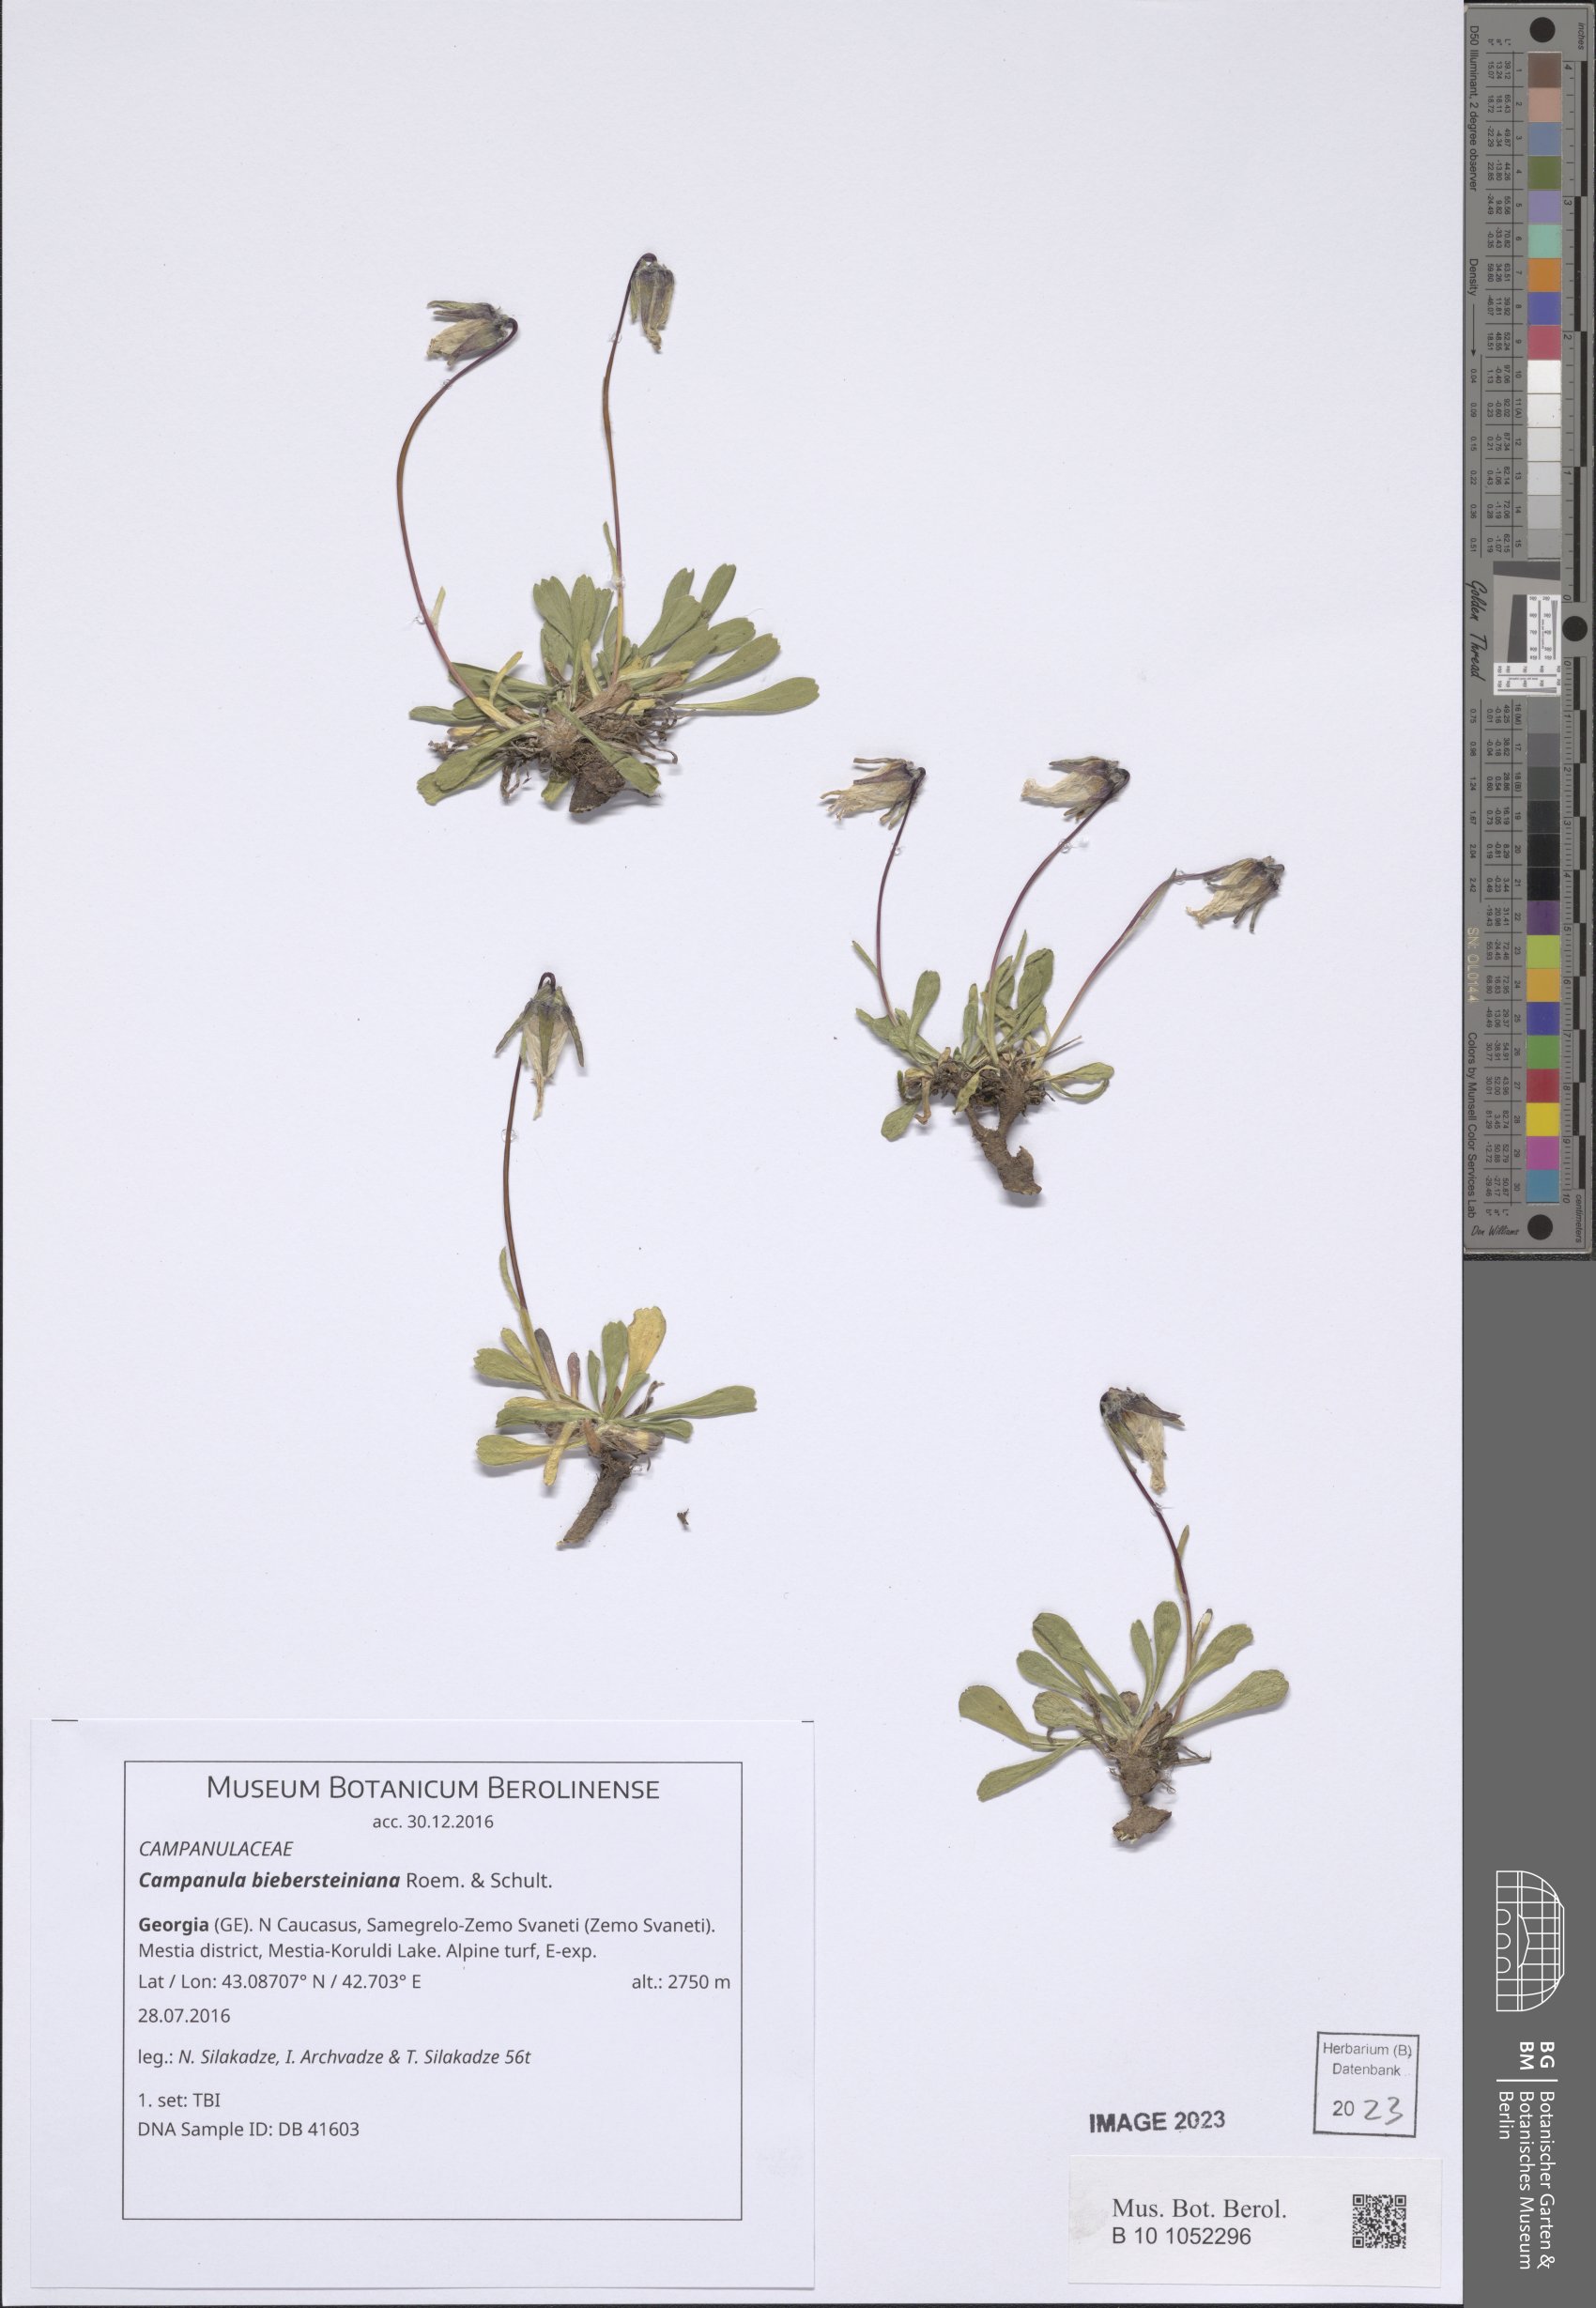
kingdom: Plantae
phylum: Tracheophyta
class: Magnoliopsida
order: Asterales
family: Campanulaceae
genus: Campanula
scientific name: Campanula tridentata
